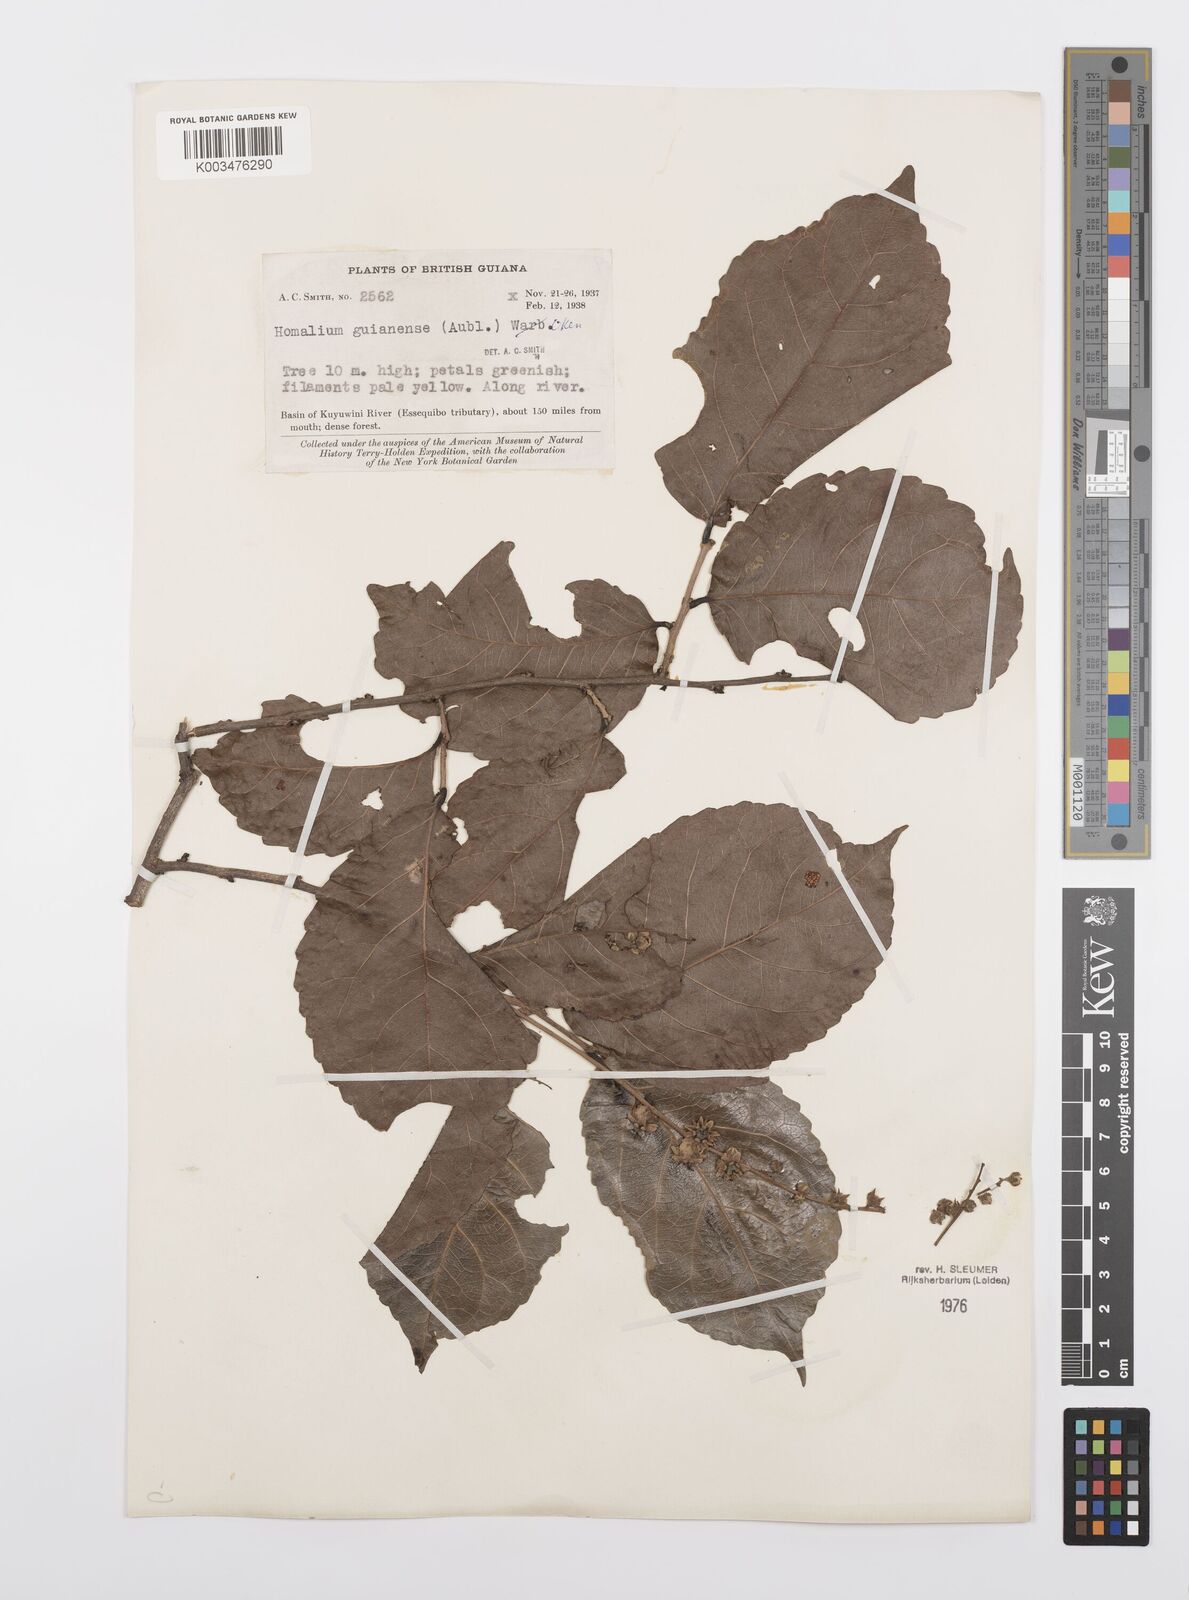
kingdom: Plantae
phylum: Tracheophyta
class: Magnoliopsida
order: Malpighiales
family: Salicaceae
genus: Homalium
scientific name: Homalium guianense
